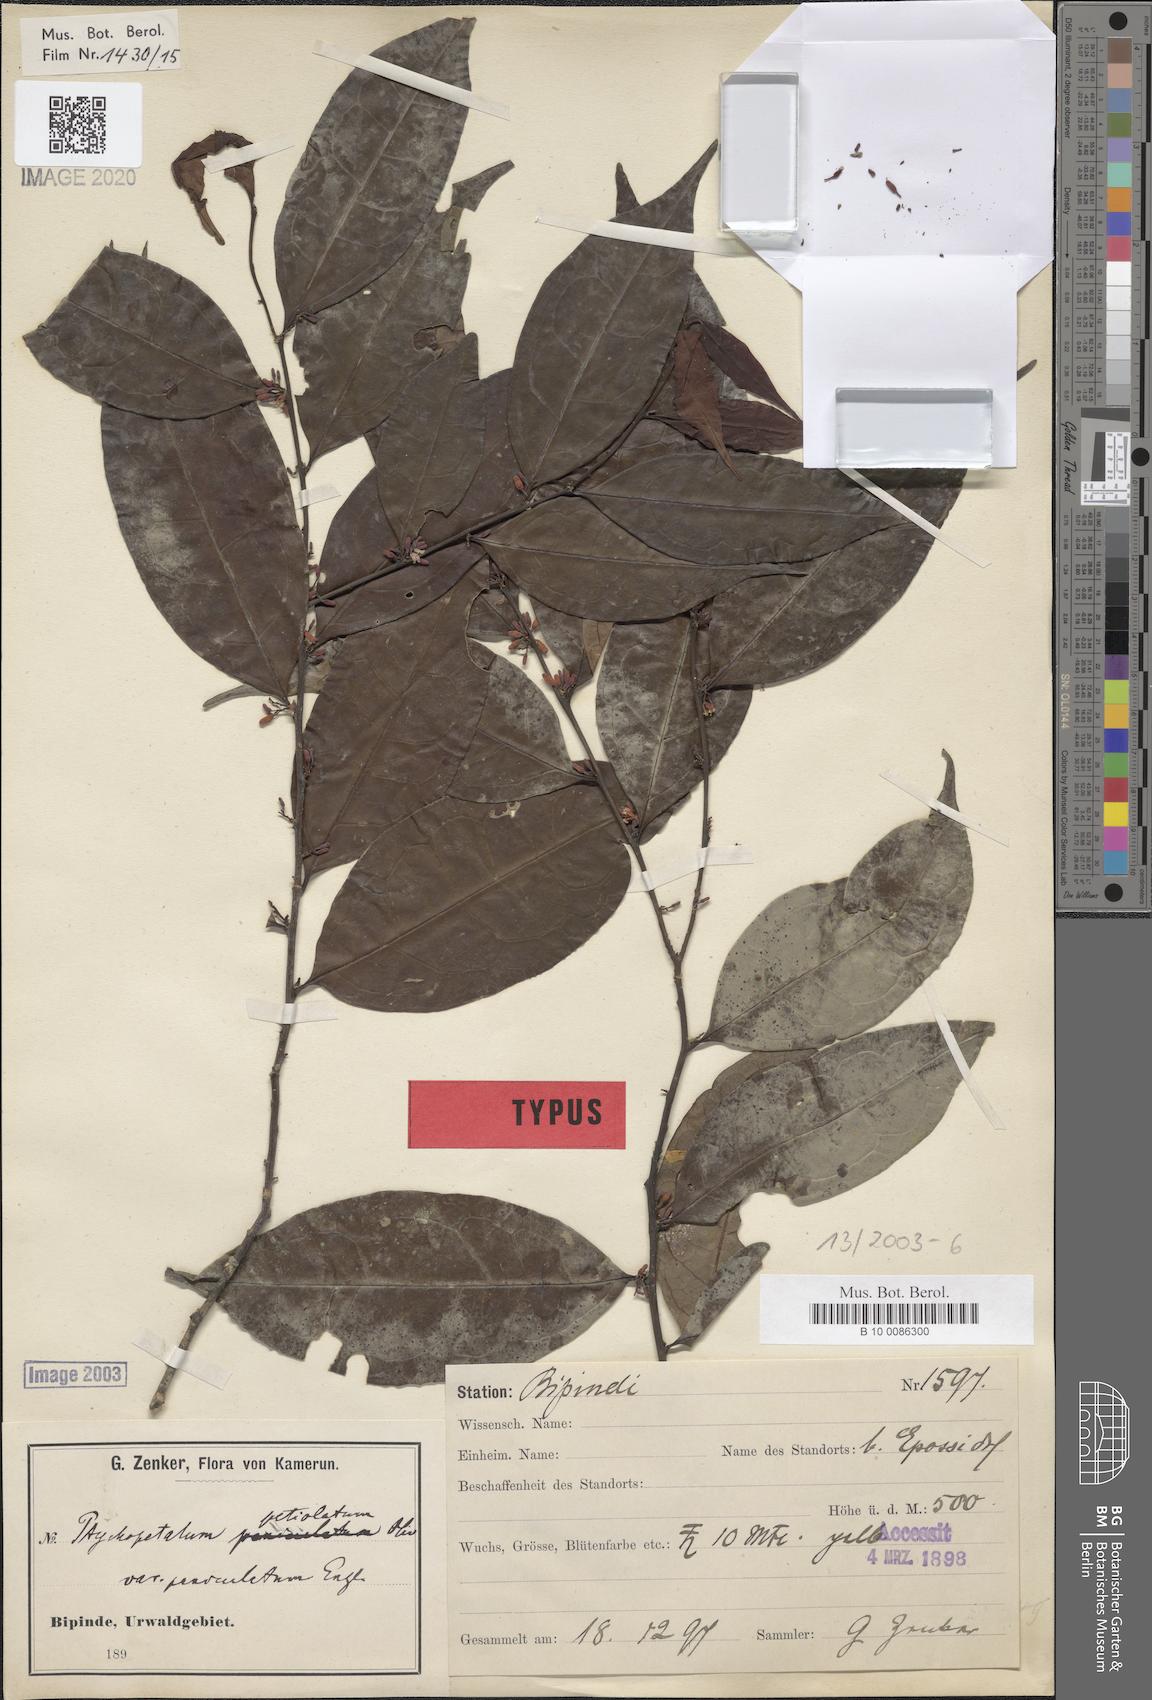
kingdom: Plantae
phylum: Tracheophyta
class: Magnoliopsida
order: Santalales
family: Olacaceae
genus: Ptychopetalum
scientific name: Ptychopetalum petiolatum
